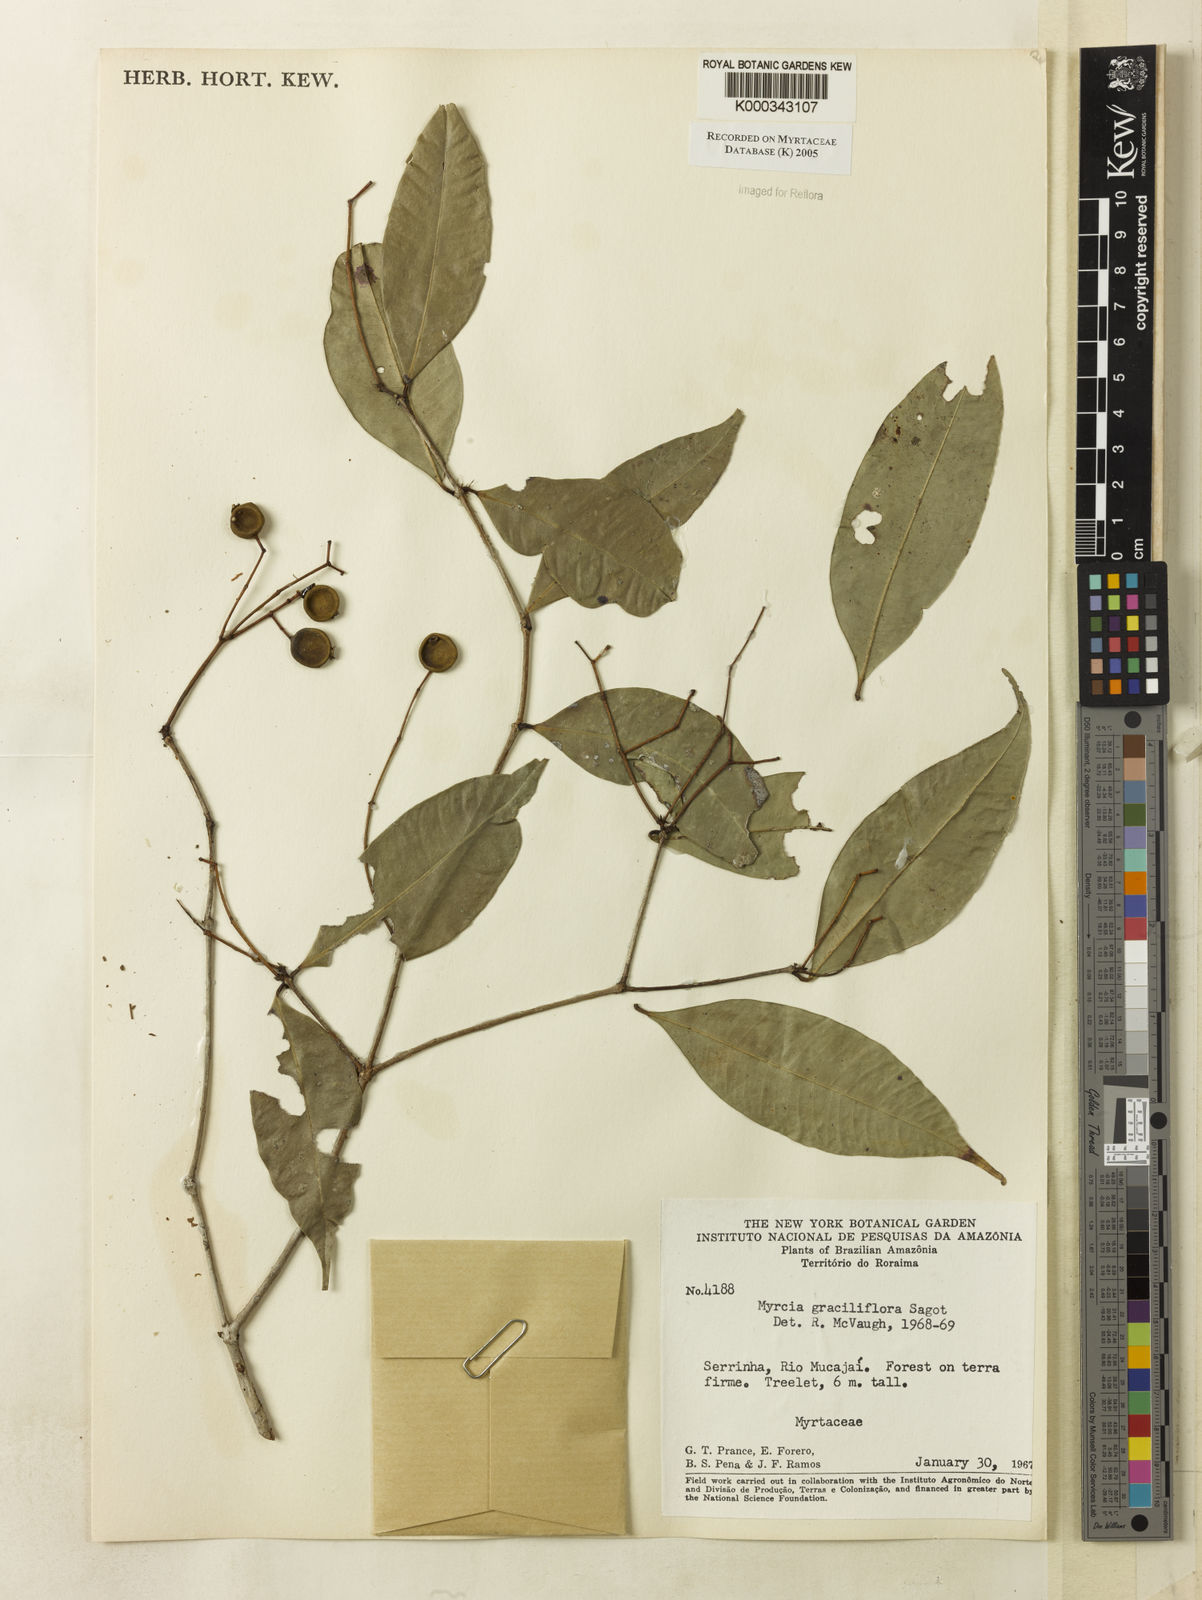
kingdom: Plantae
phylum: Tracheophyta
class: Magnoliopsida
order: Myrtales
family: Myrtaceae
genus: Myrcia
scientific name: Myrcia graciliflora
